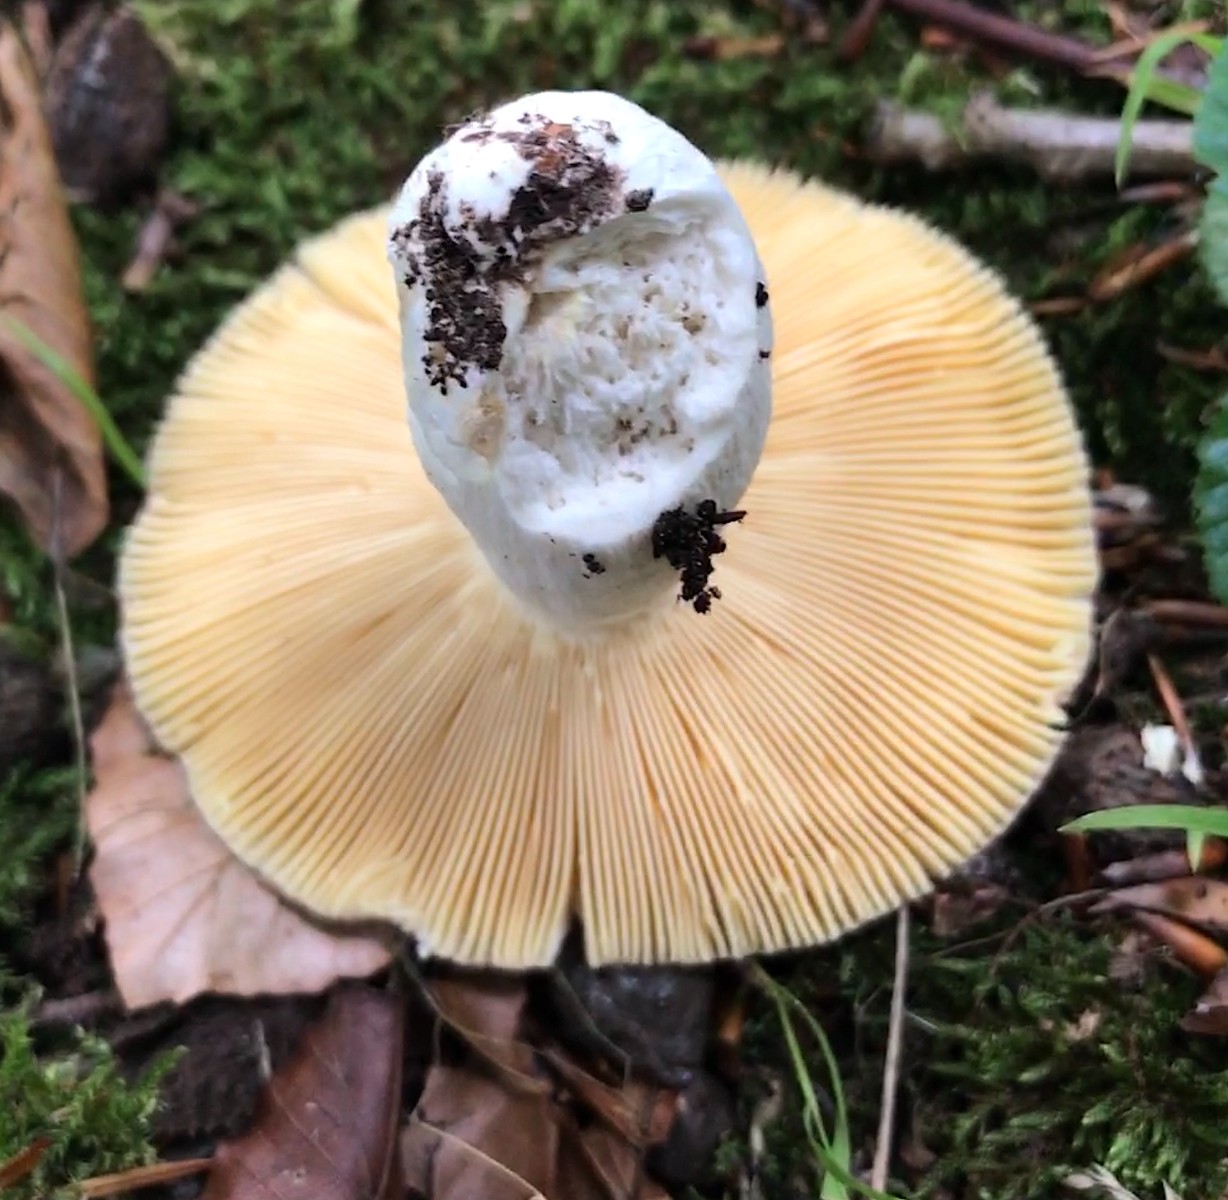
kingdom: Fungi
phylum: Basidiomycota
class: Agaricomycetes
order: Russulales
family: Russulaceae
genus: Russula
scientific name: Russula cyanoxantha
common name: broget skørhat
